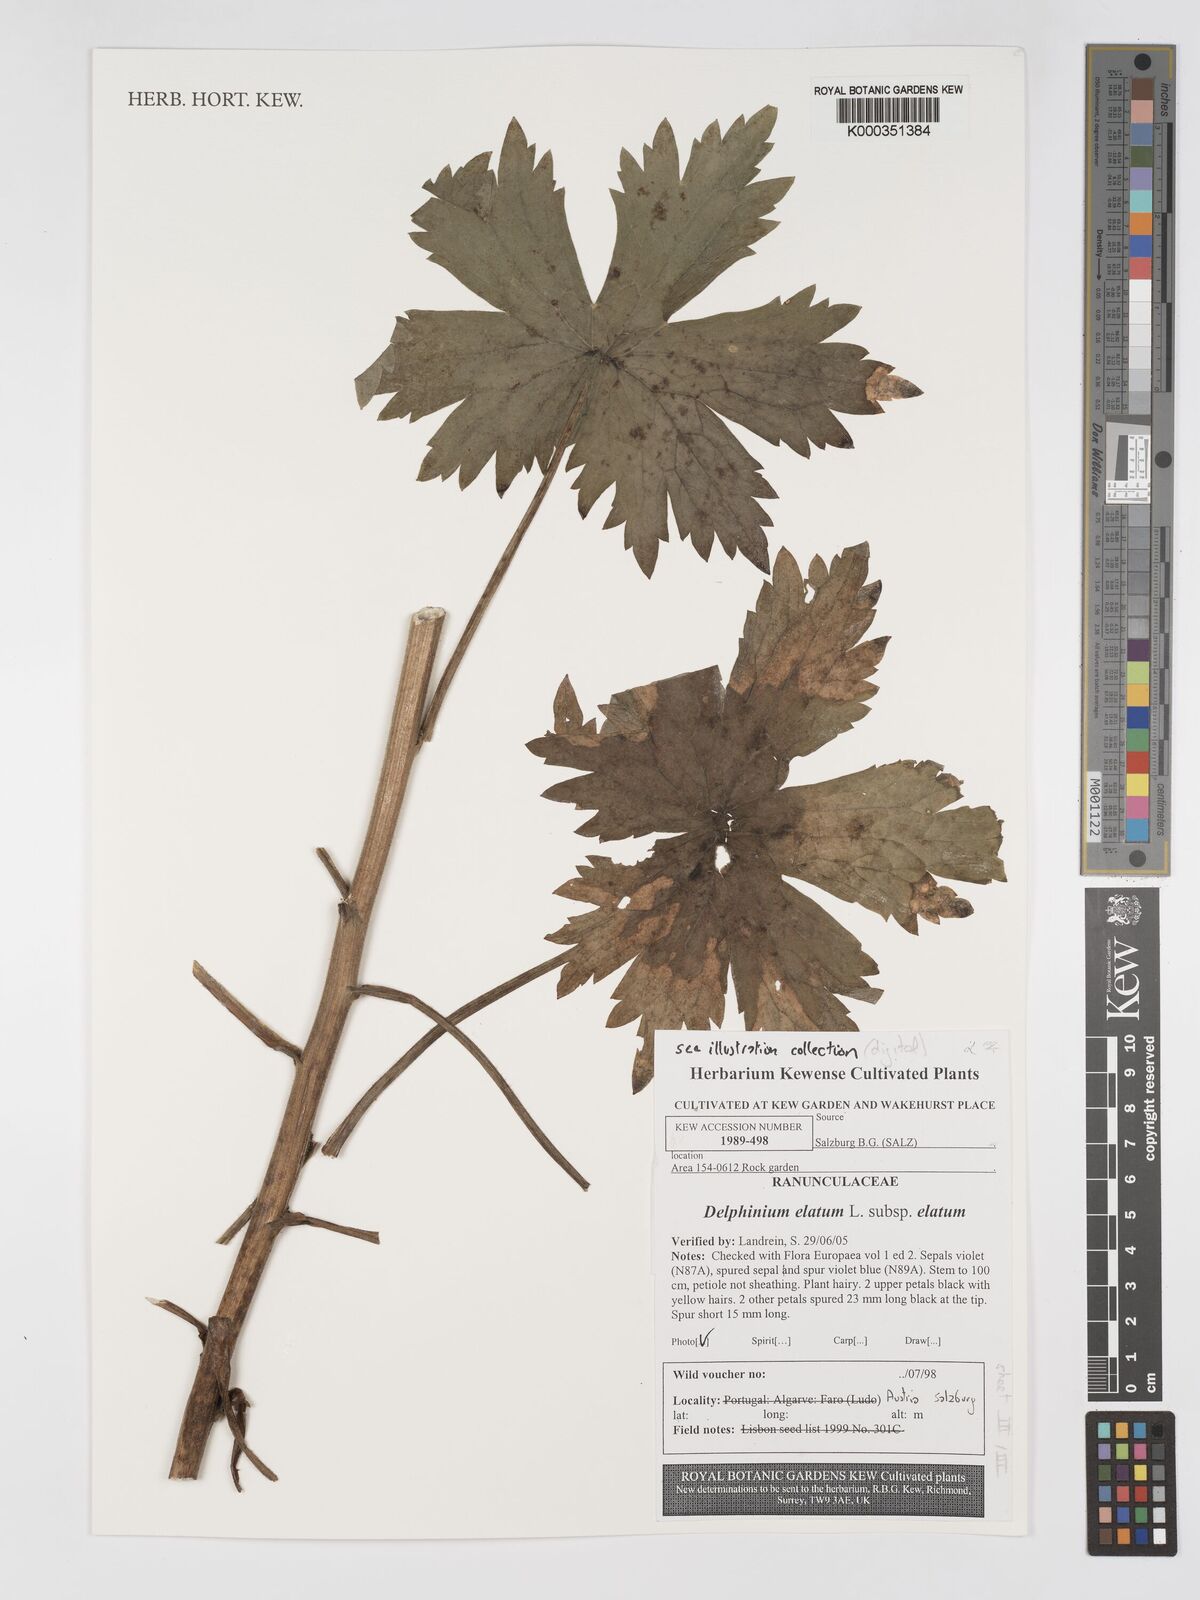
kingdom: Plantae
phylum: Tracheophyta
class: Magnoliopsida
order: Ranunculales
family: Ranunculaceae
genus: Delphinium
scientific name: Delphinium elatum
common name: Candle larkspur
